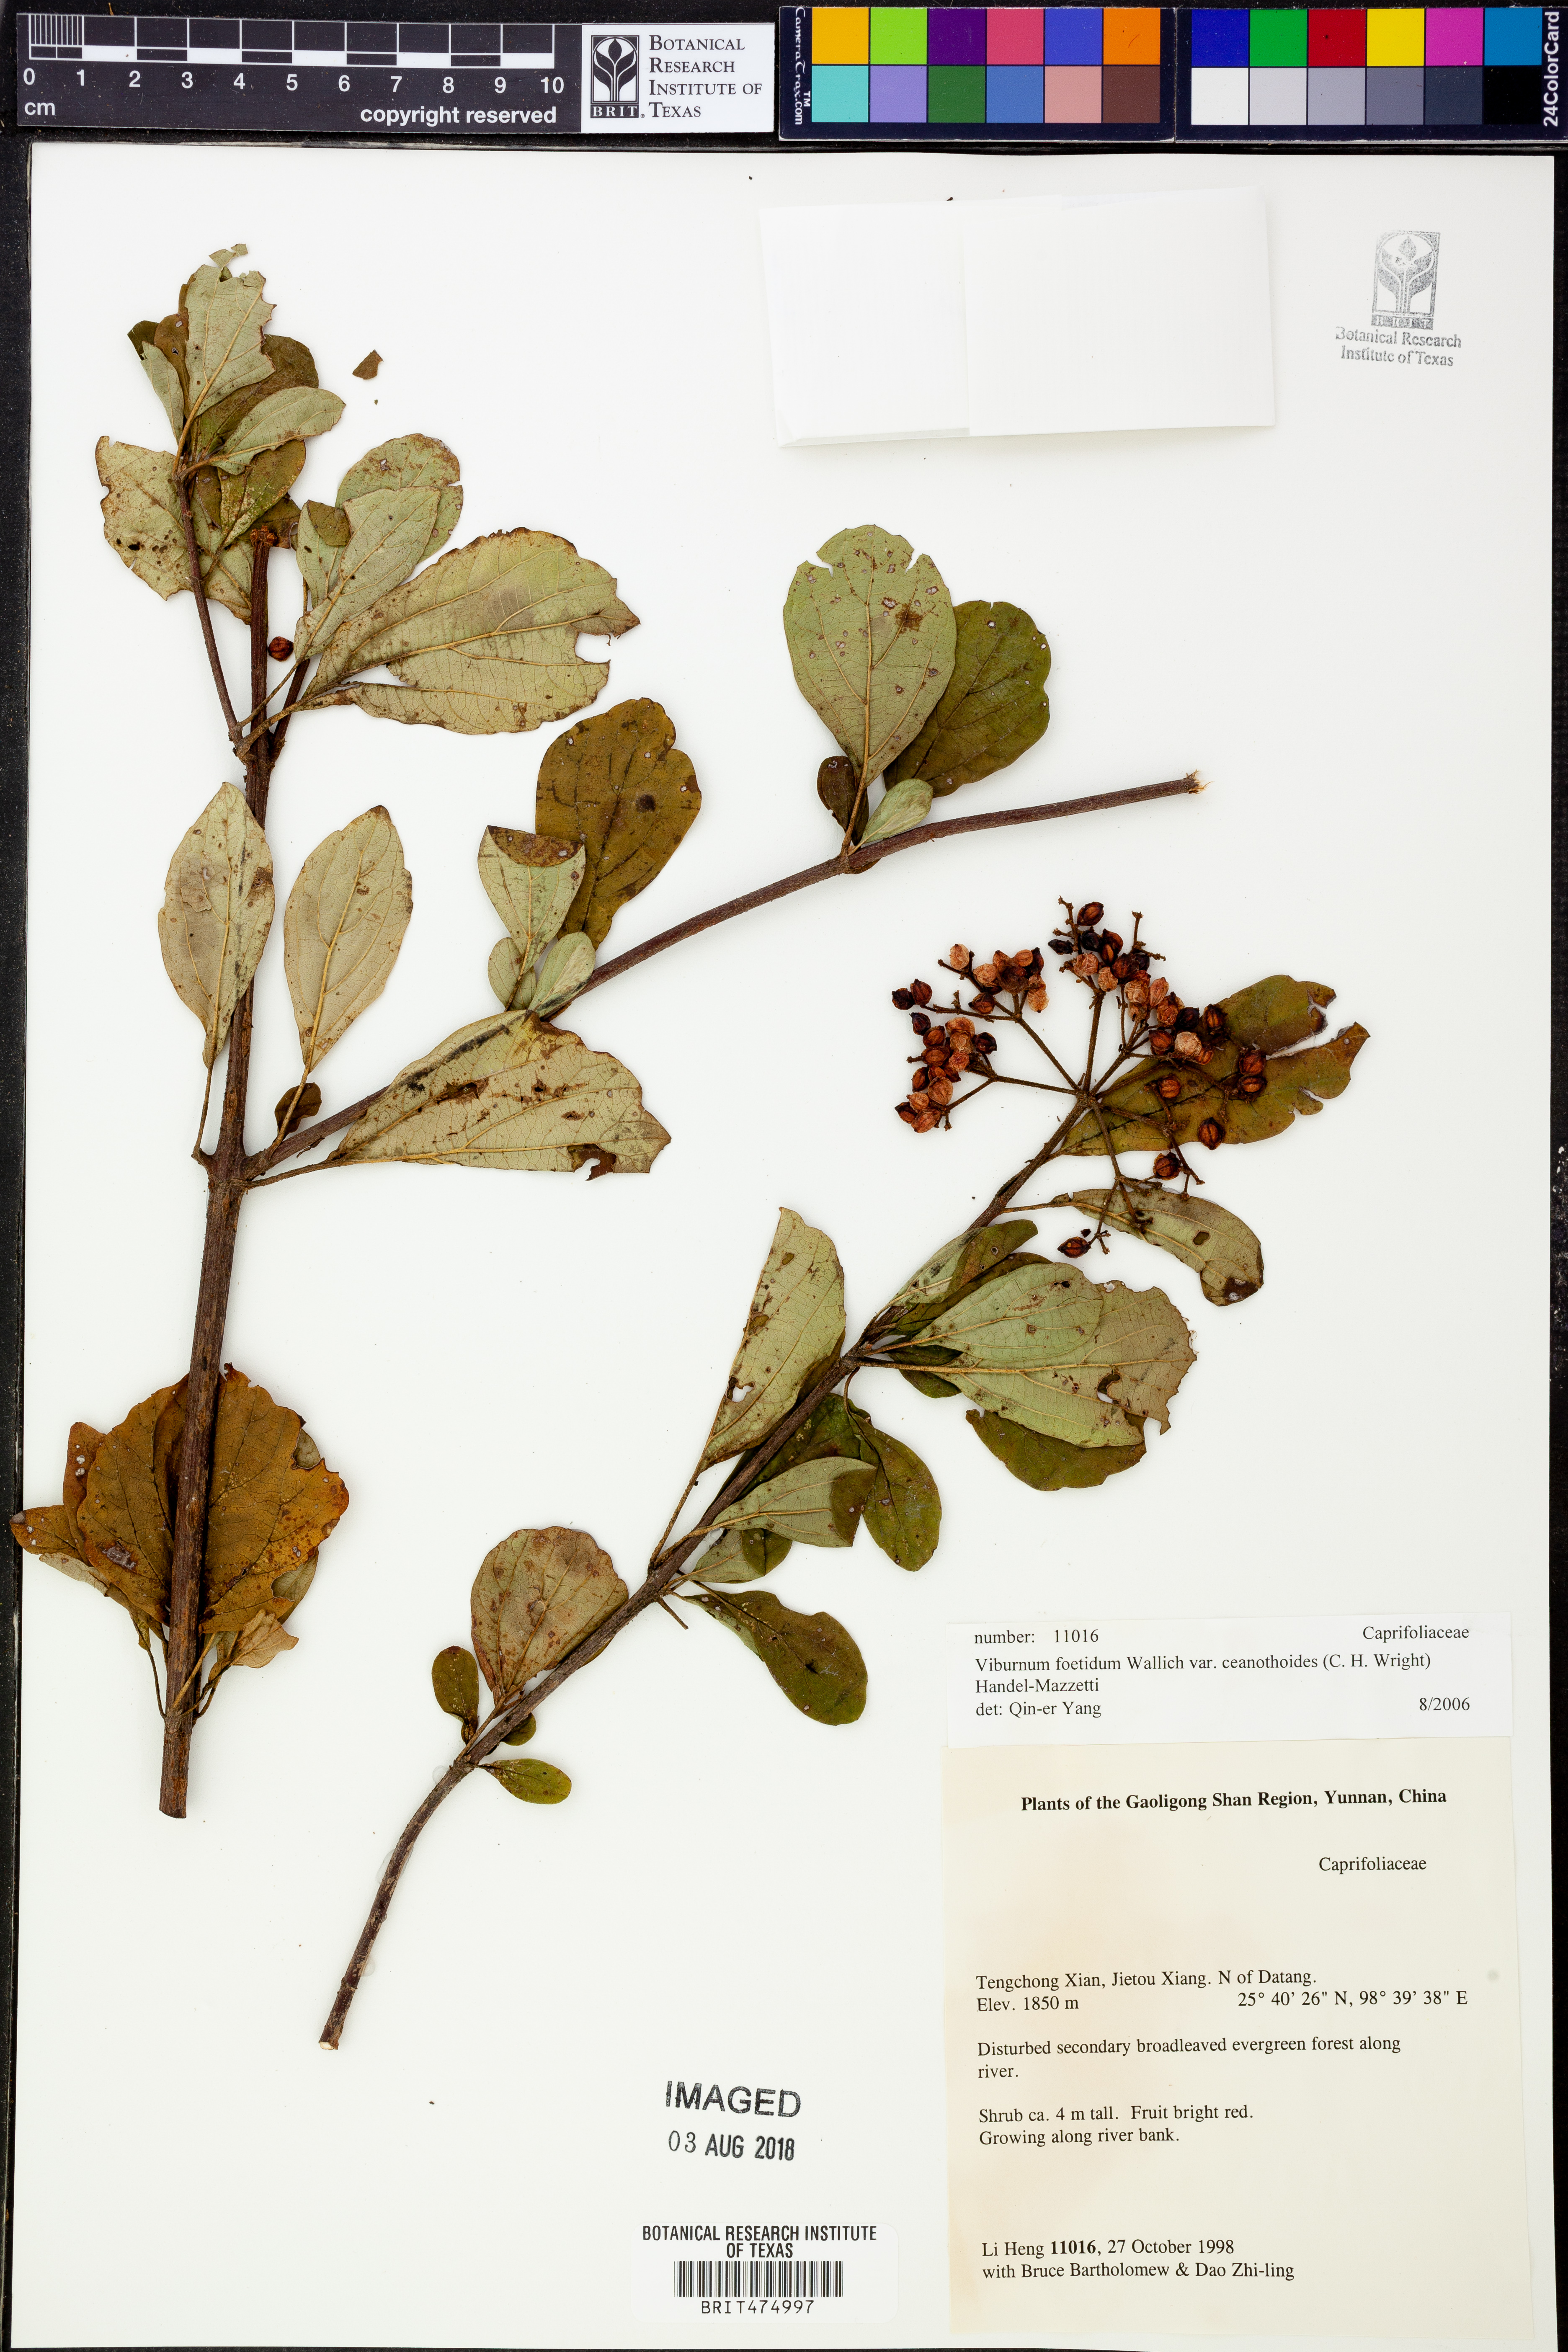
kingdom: Plantae
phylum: Tracheophyta
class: Magnoliopsida
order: Dipsacales
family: Viburnaceae
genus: Viburnum
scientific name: Viburnum foetidum
